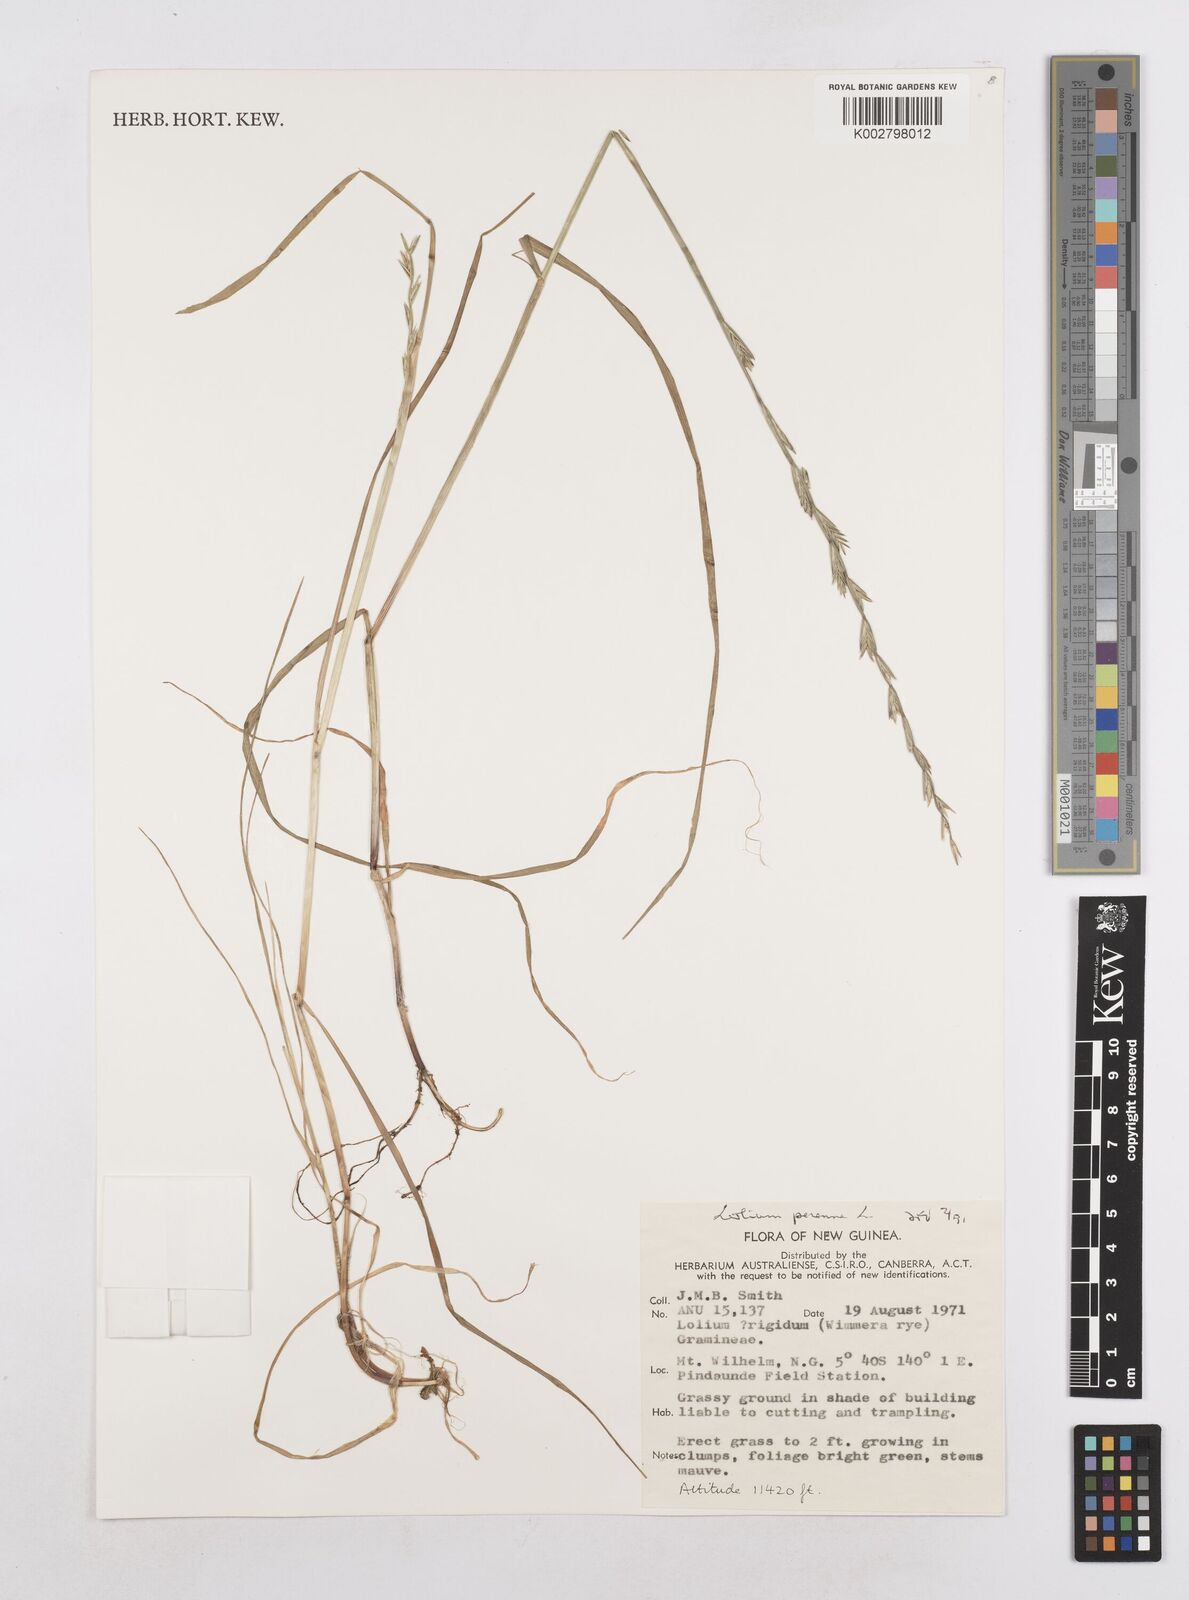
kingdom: Plantae
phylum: Tracheophyta
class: Liliopsida
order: Poales
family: Poaceae
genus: Lolium
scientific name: Lolium perenne
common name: Perennial ryegrass
